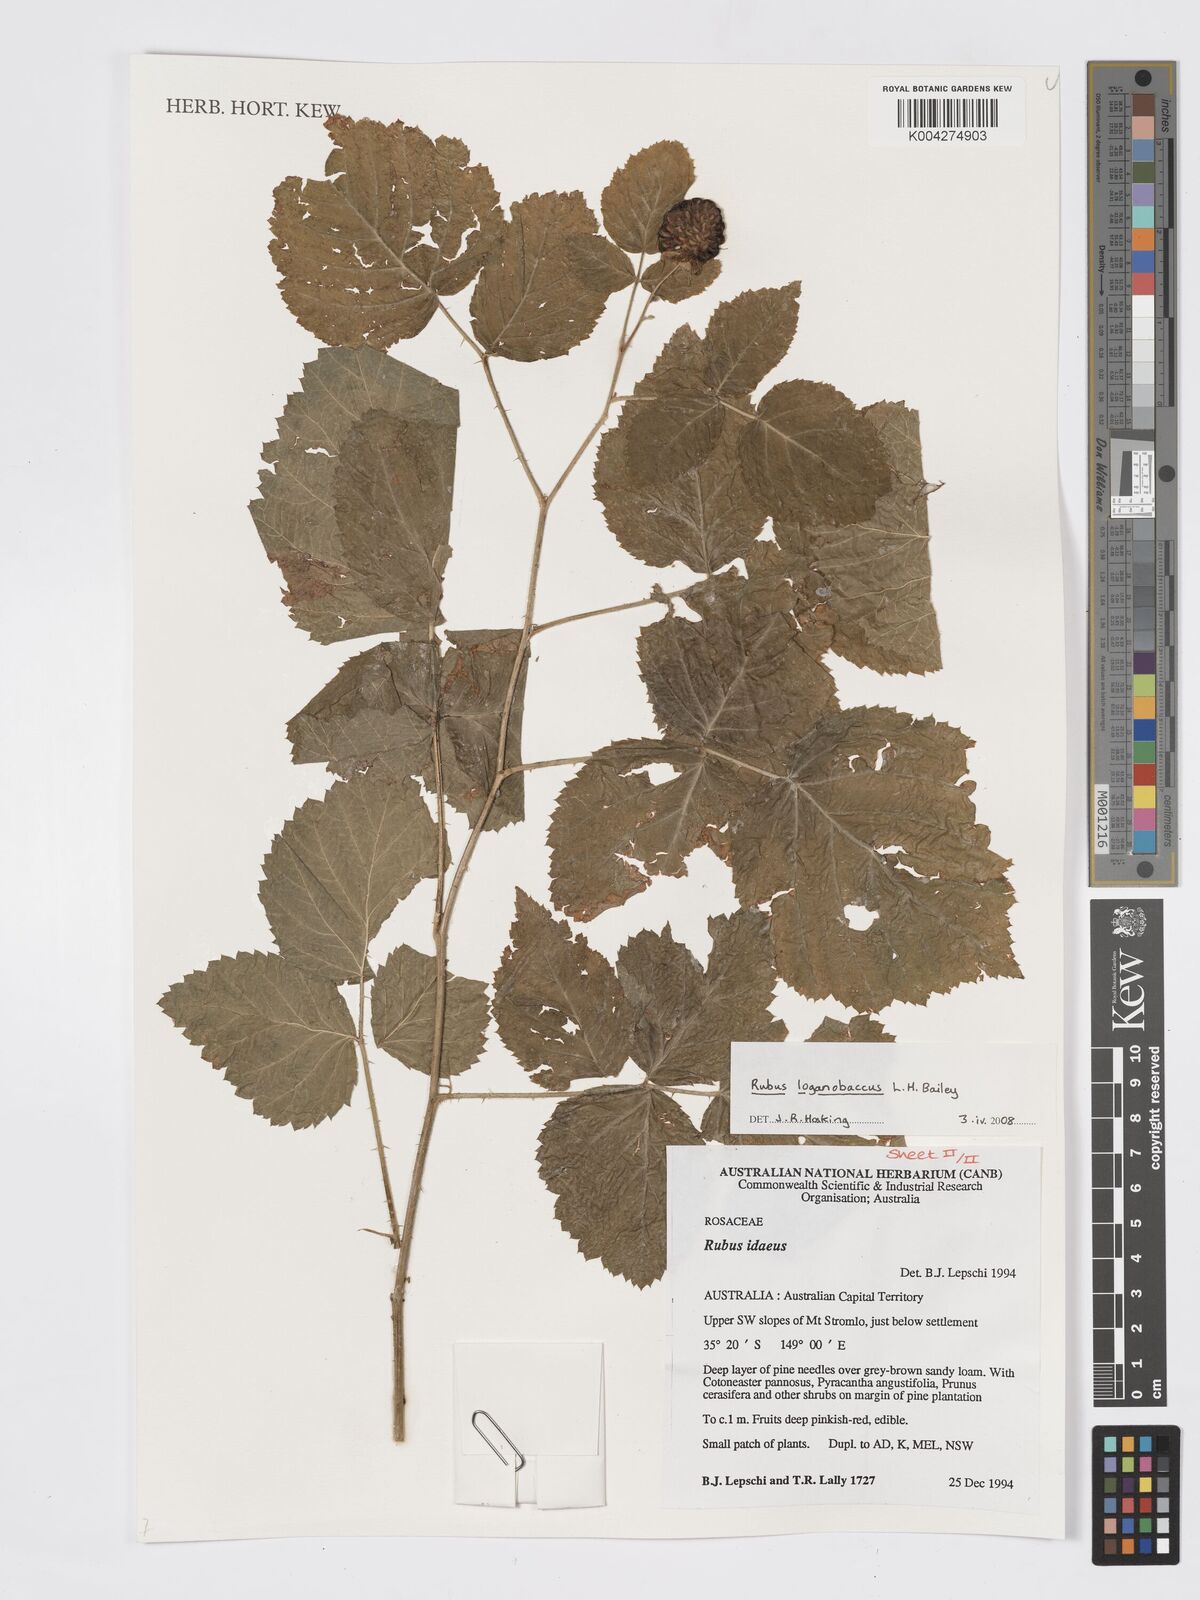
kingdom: Plantae
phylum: Tracheophyta
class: Magnoliopsida
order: Rosales
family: Rosaceae
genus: Rubus
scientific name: Rubus loganobaccus
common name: Loganberry
